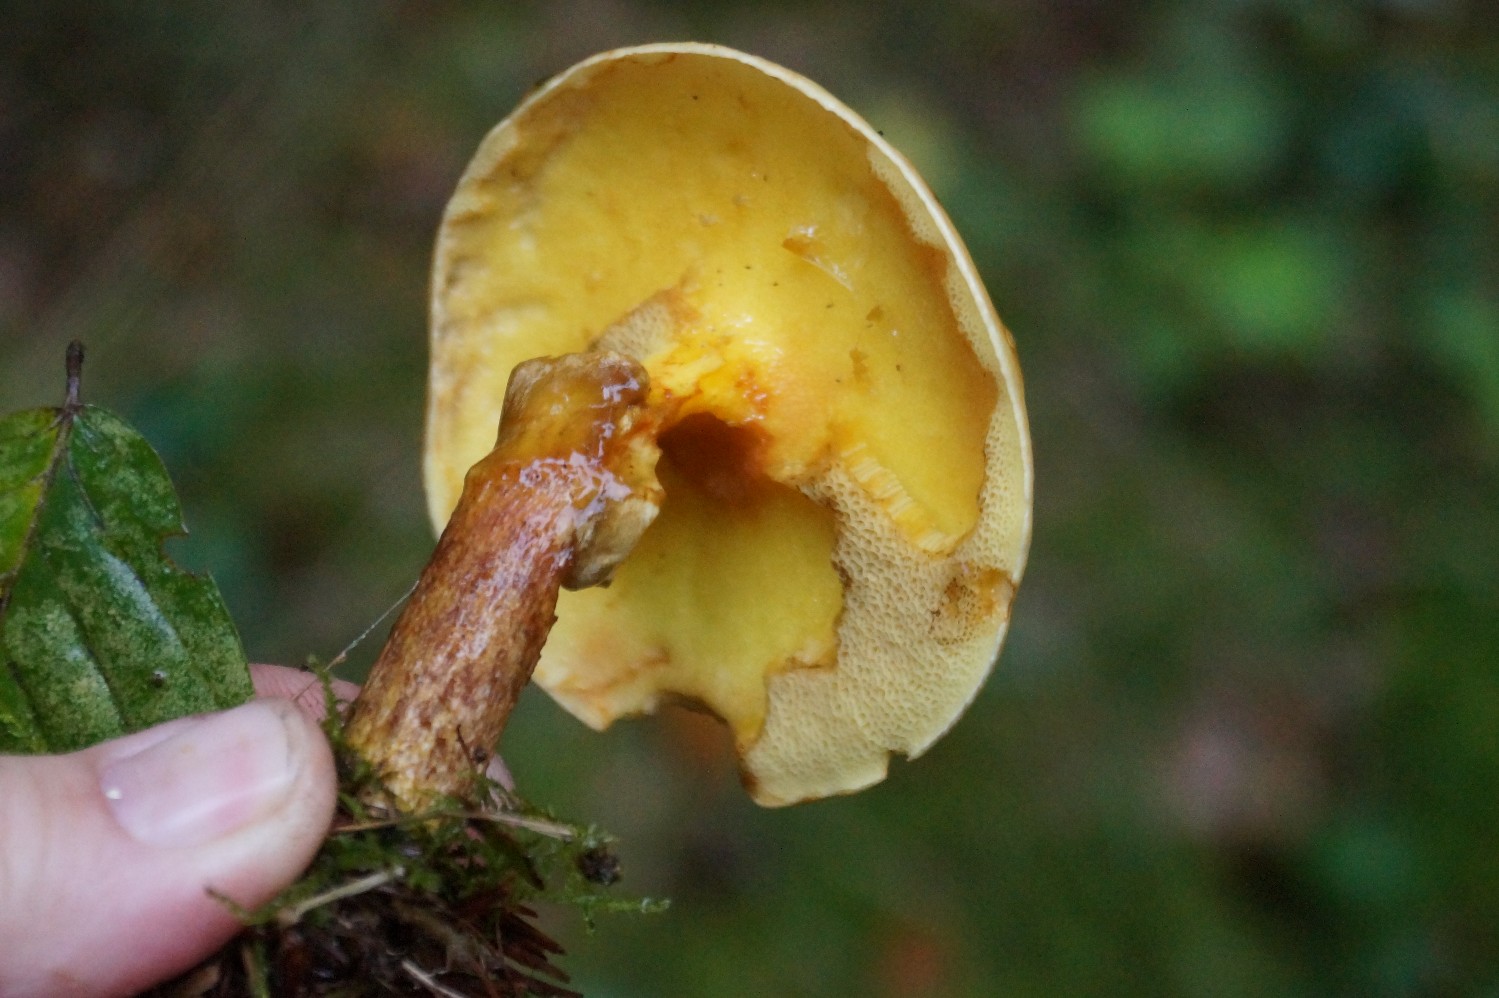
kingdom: Fungi
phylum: Basidiomycota
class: Agaricomycetes
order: Boletales
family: Suillaceae
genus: Suillus
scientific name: Suillus grevillei
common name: lærke-slimrørhat
